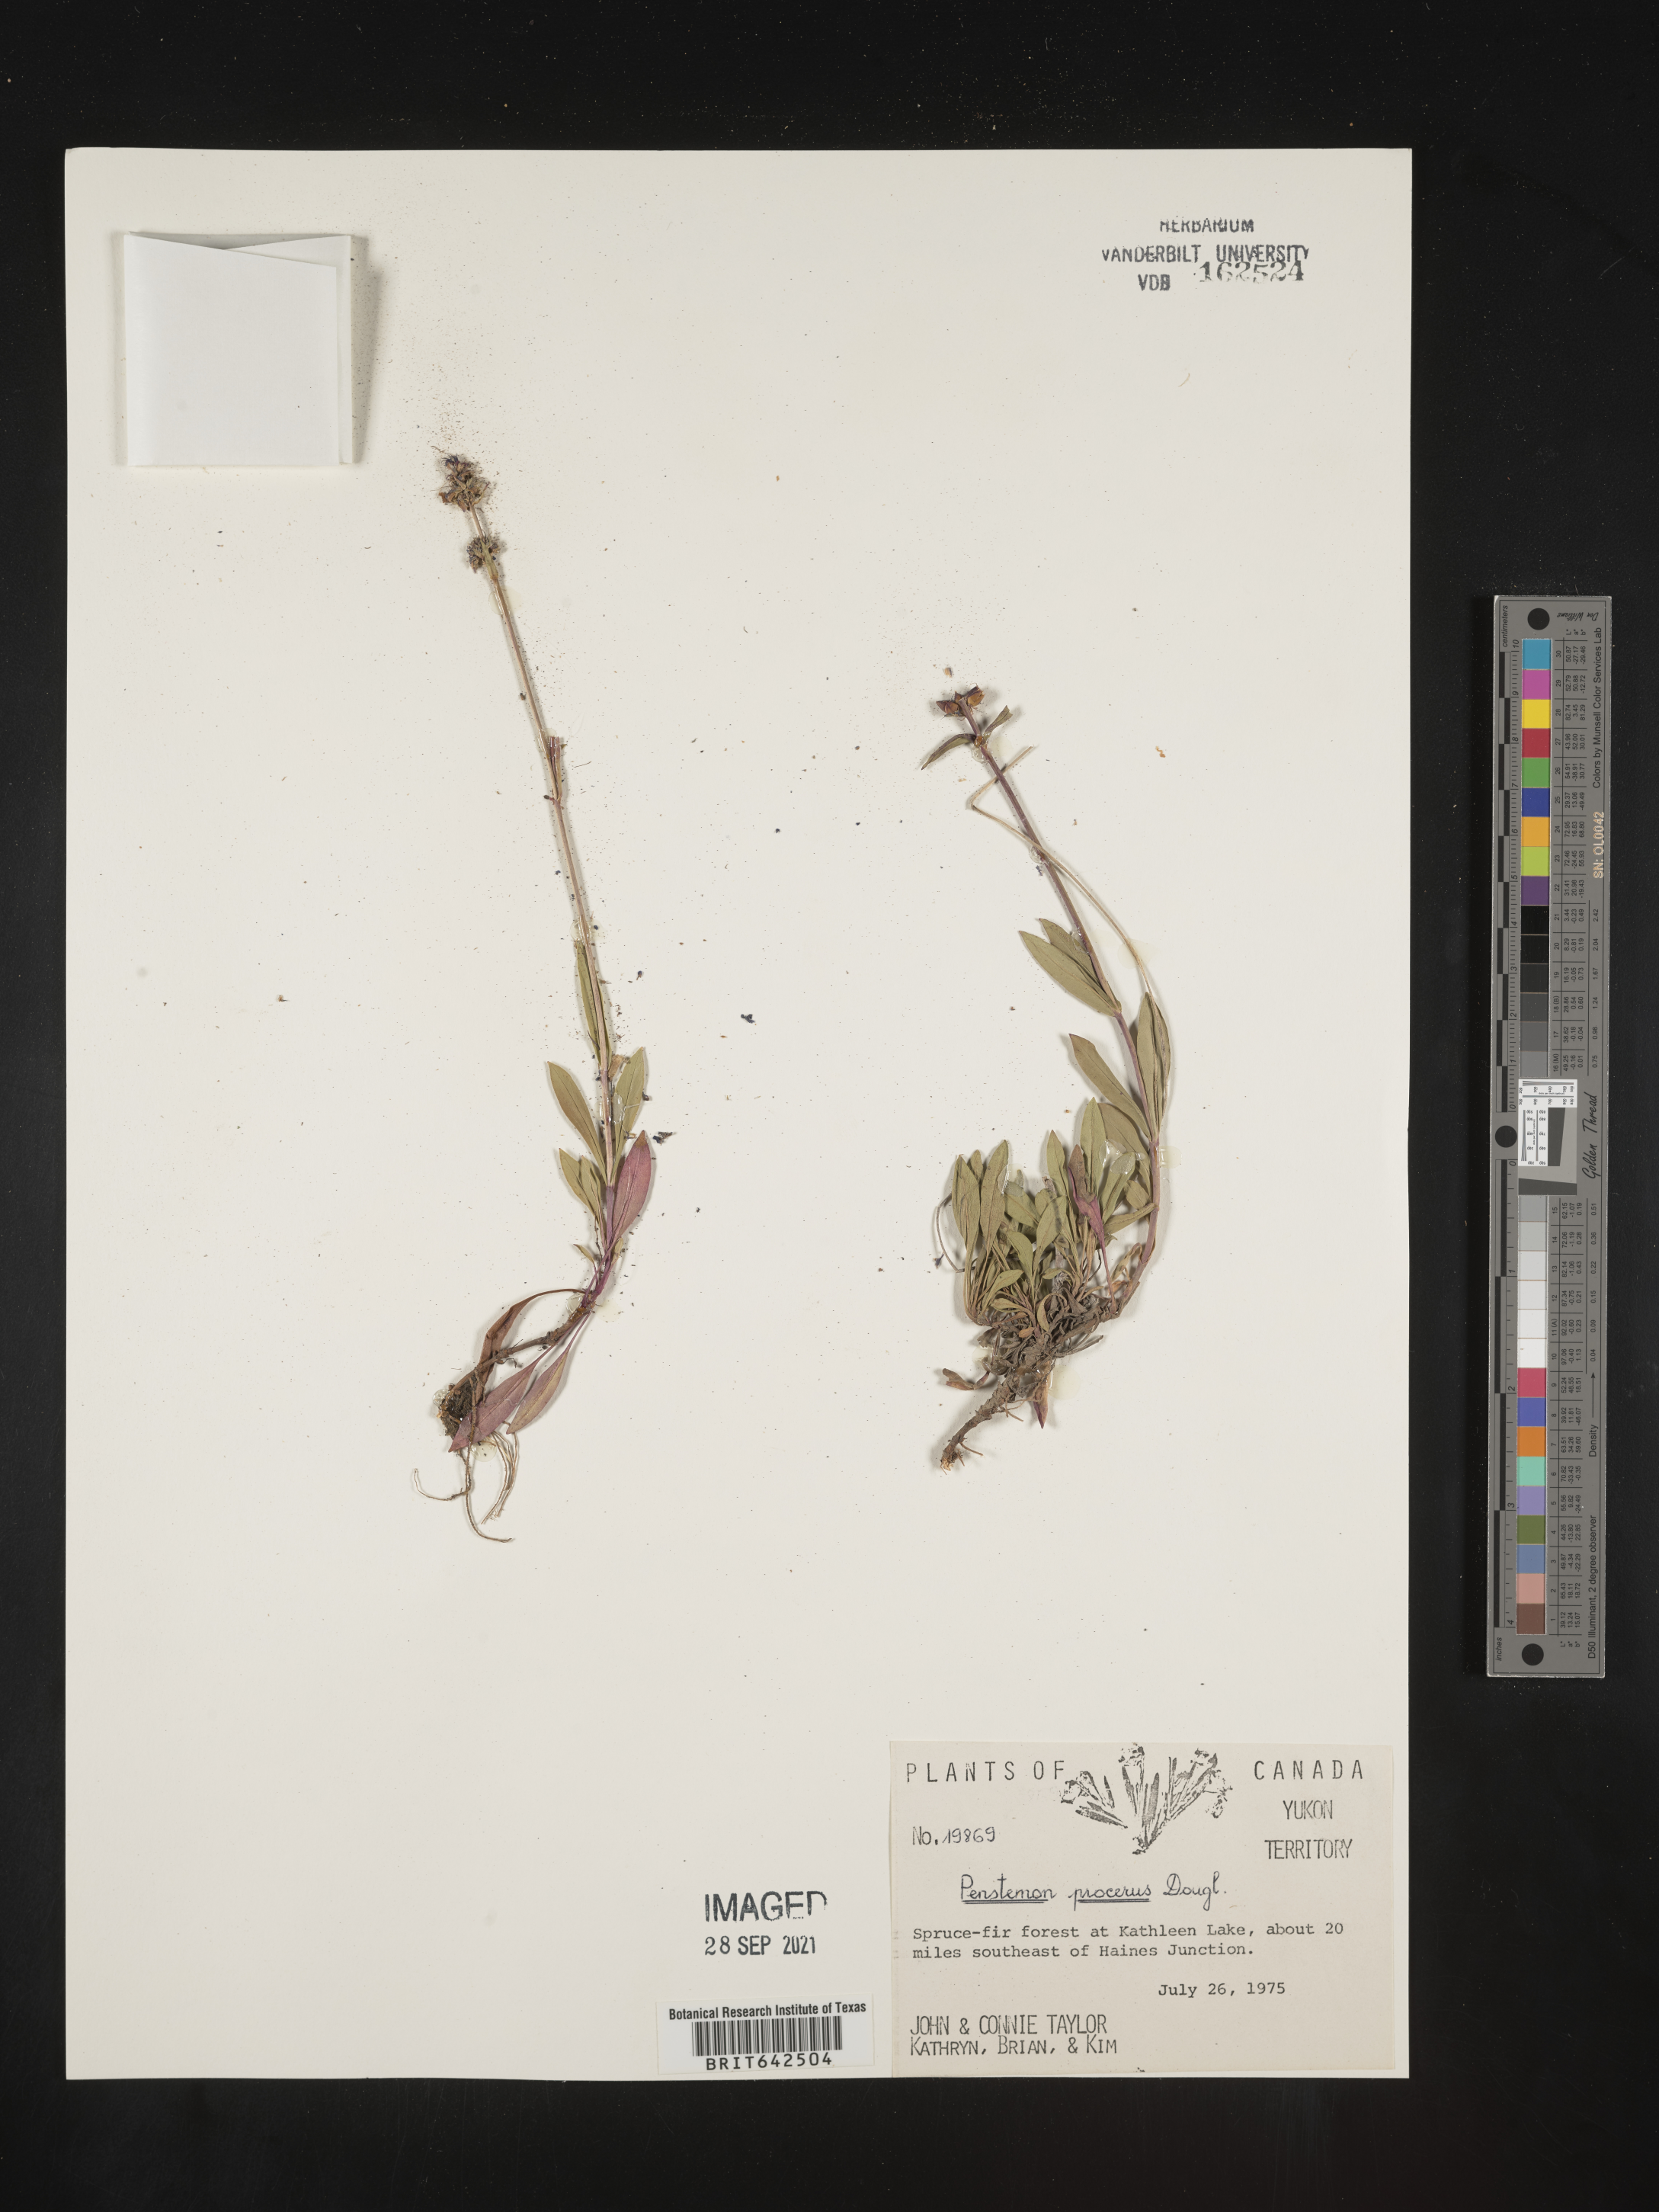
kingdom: Plantae
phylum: Tracheophyta
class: Magnoliopsida
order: Lamiales
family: Plantaginaceae
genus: Penstemon
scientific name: Penstemon
